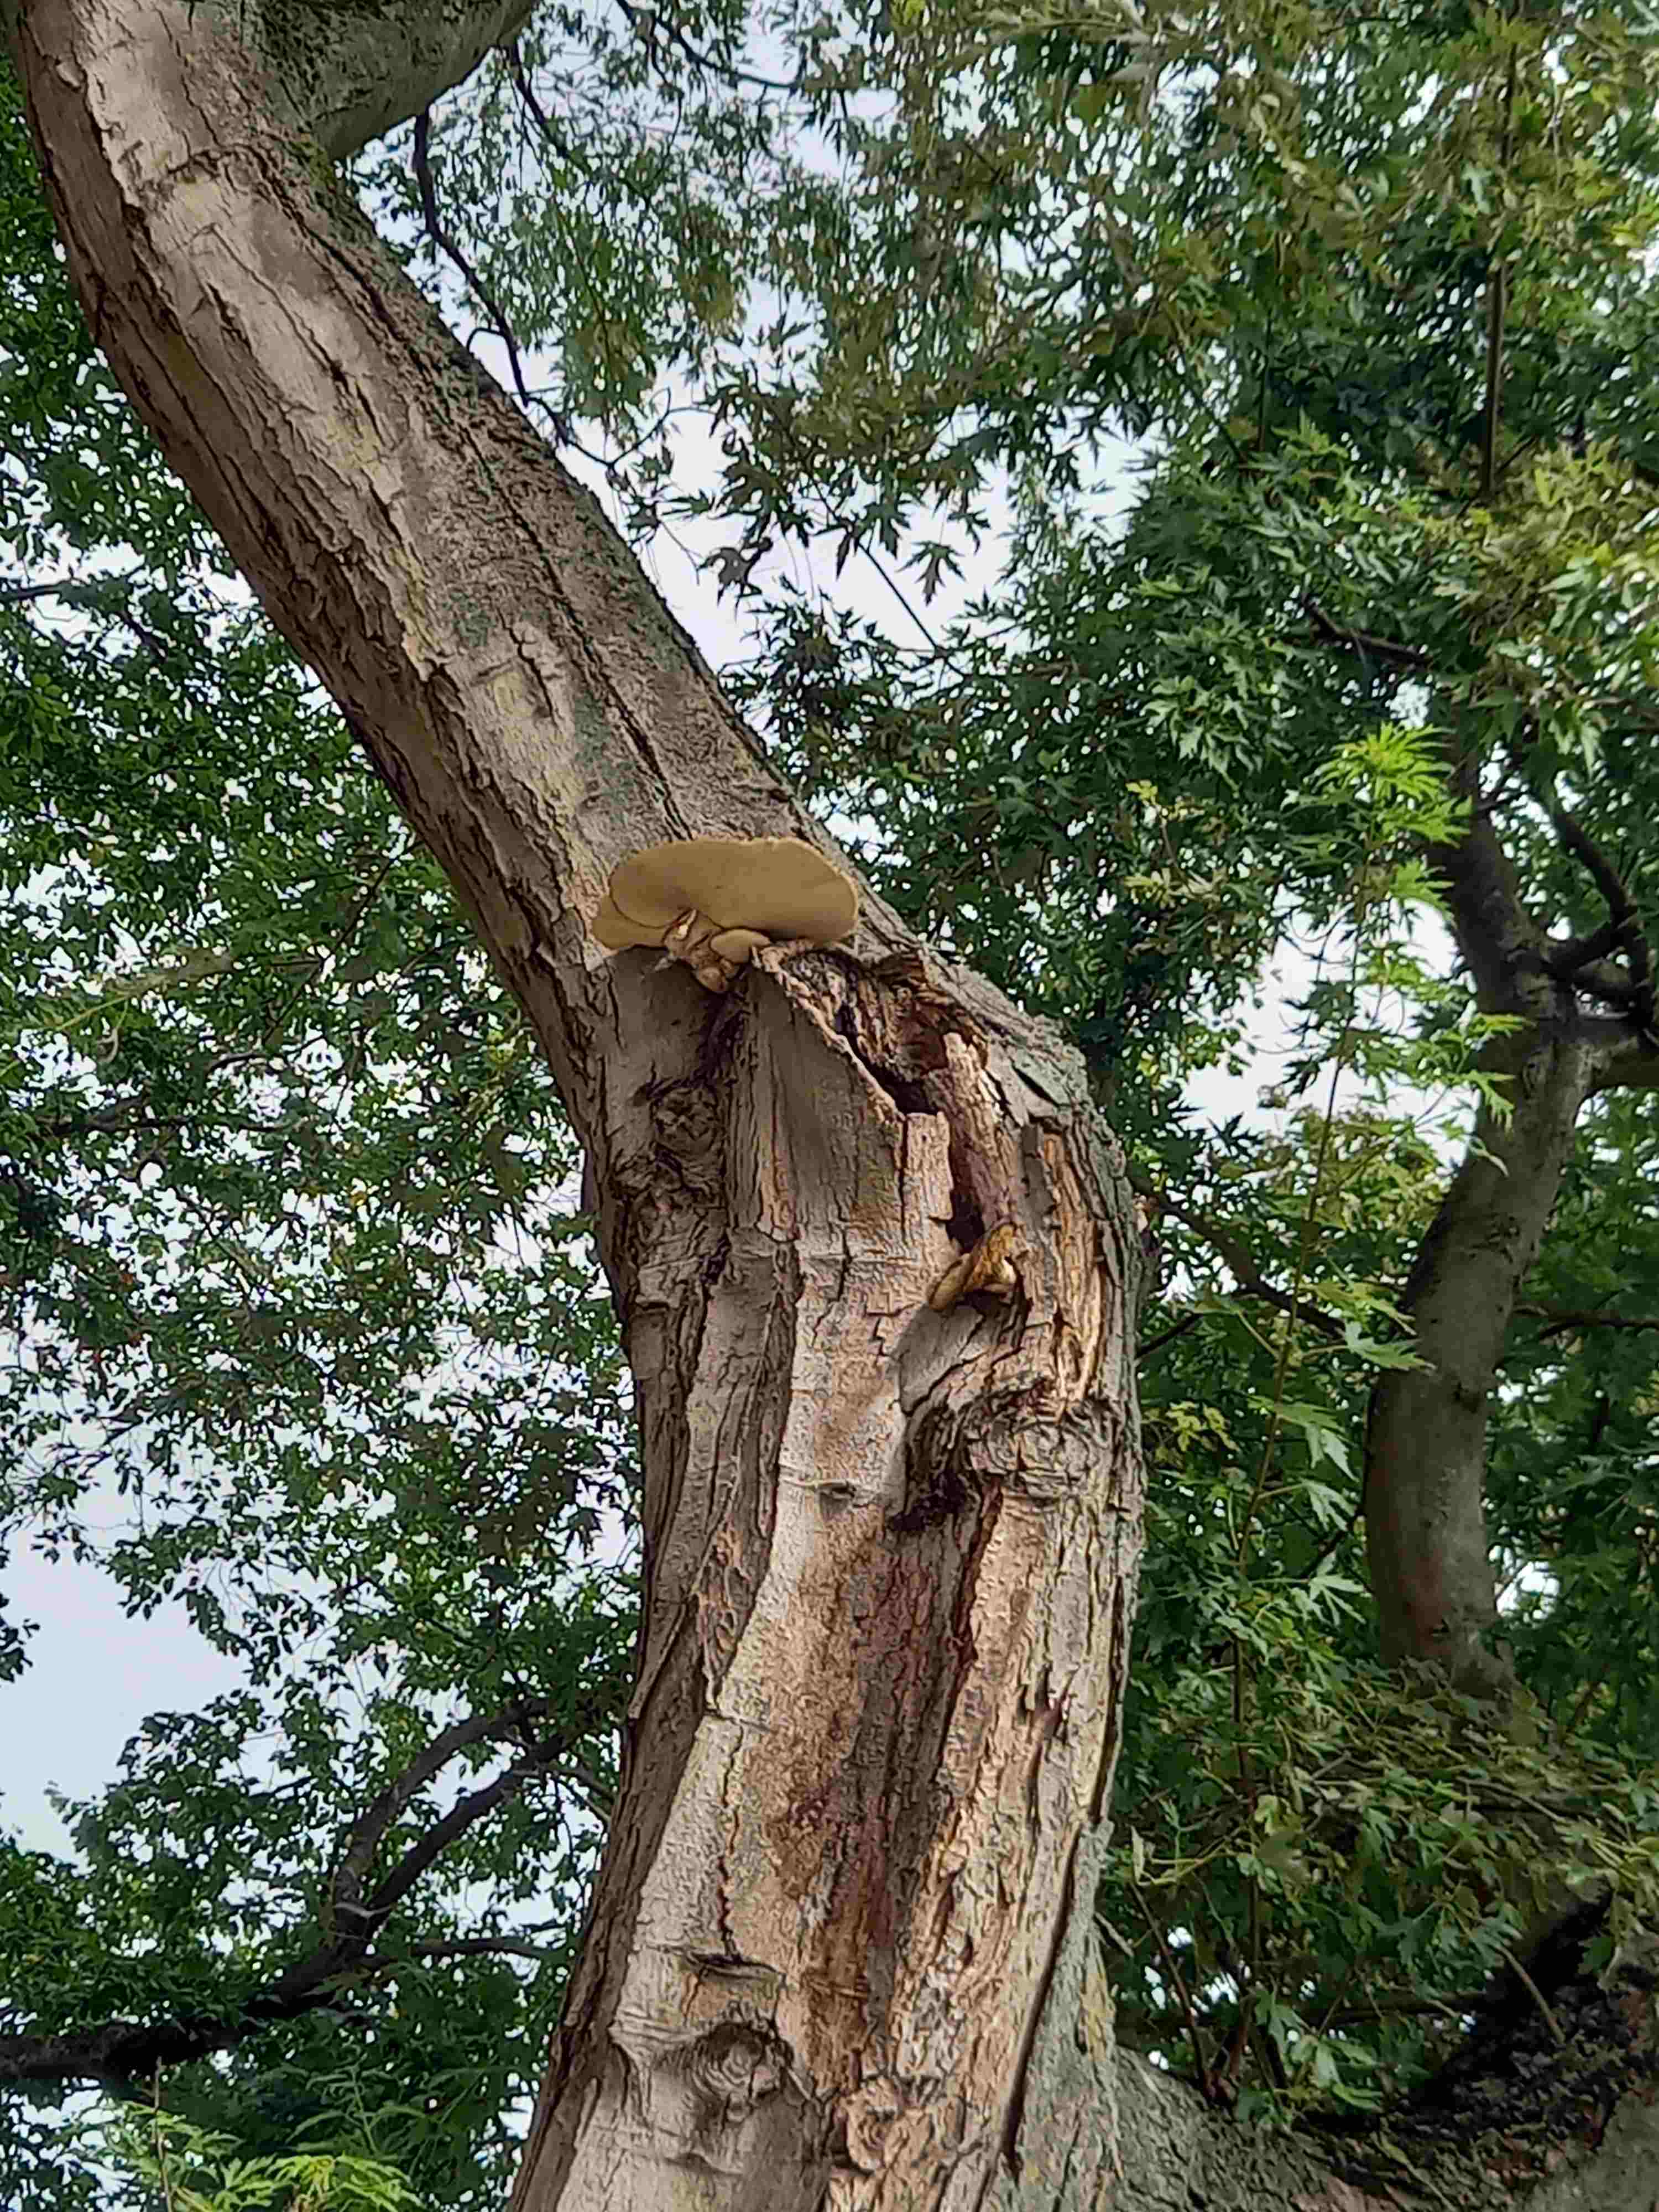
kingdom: Fungi
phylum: Basidiomycota
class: Agaricomycetes
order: Polyporales
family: Polyporaceae
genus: Cerioporus
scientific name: Cerioporus squamosus
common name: skællet stilkporesvamp
